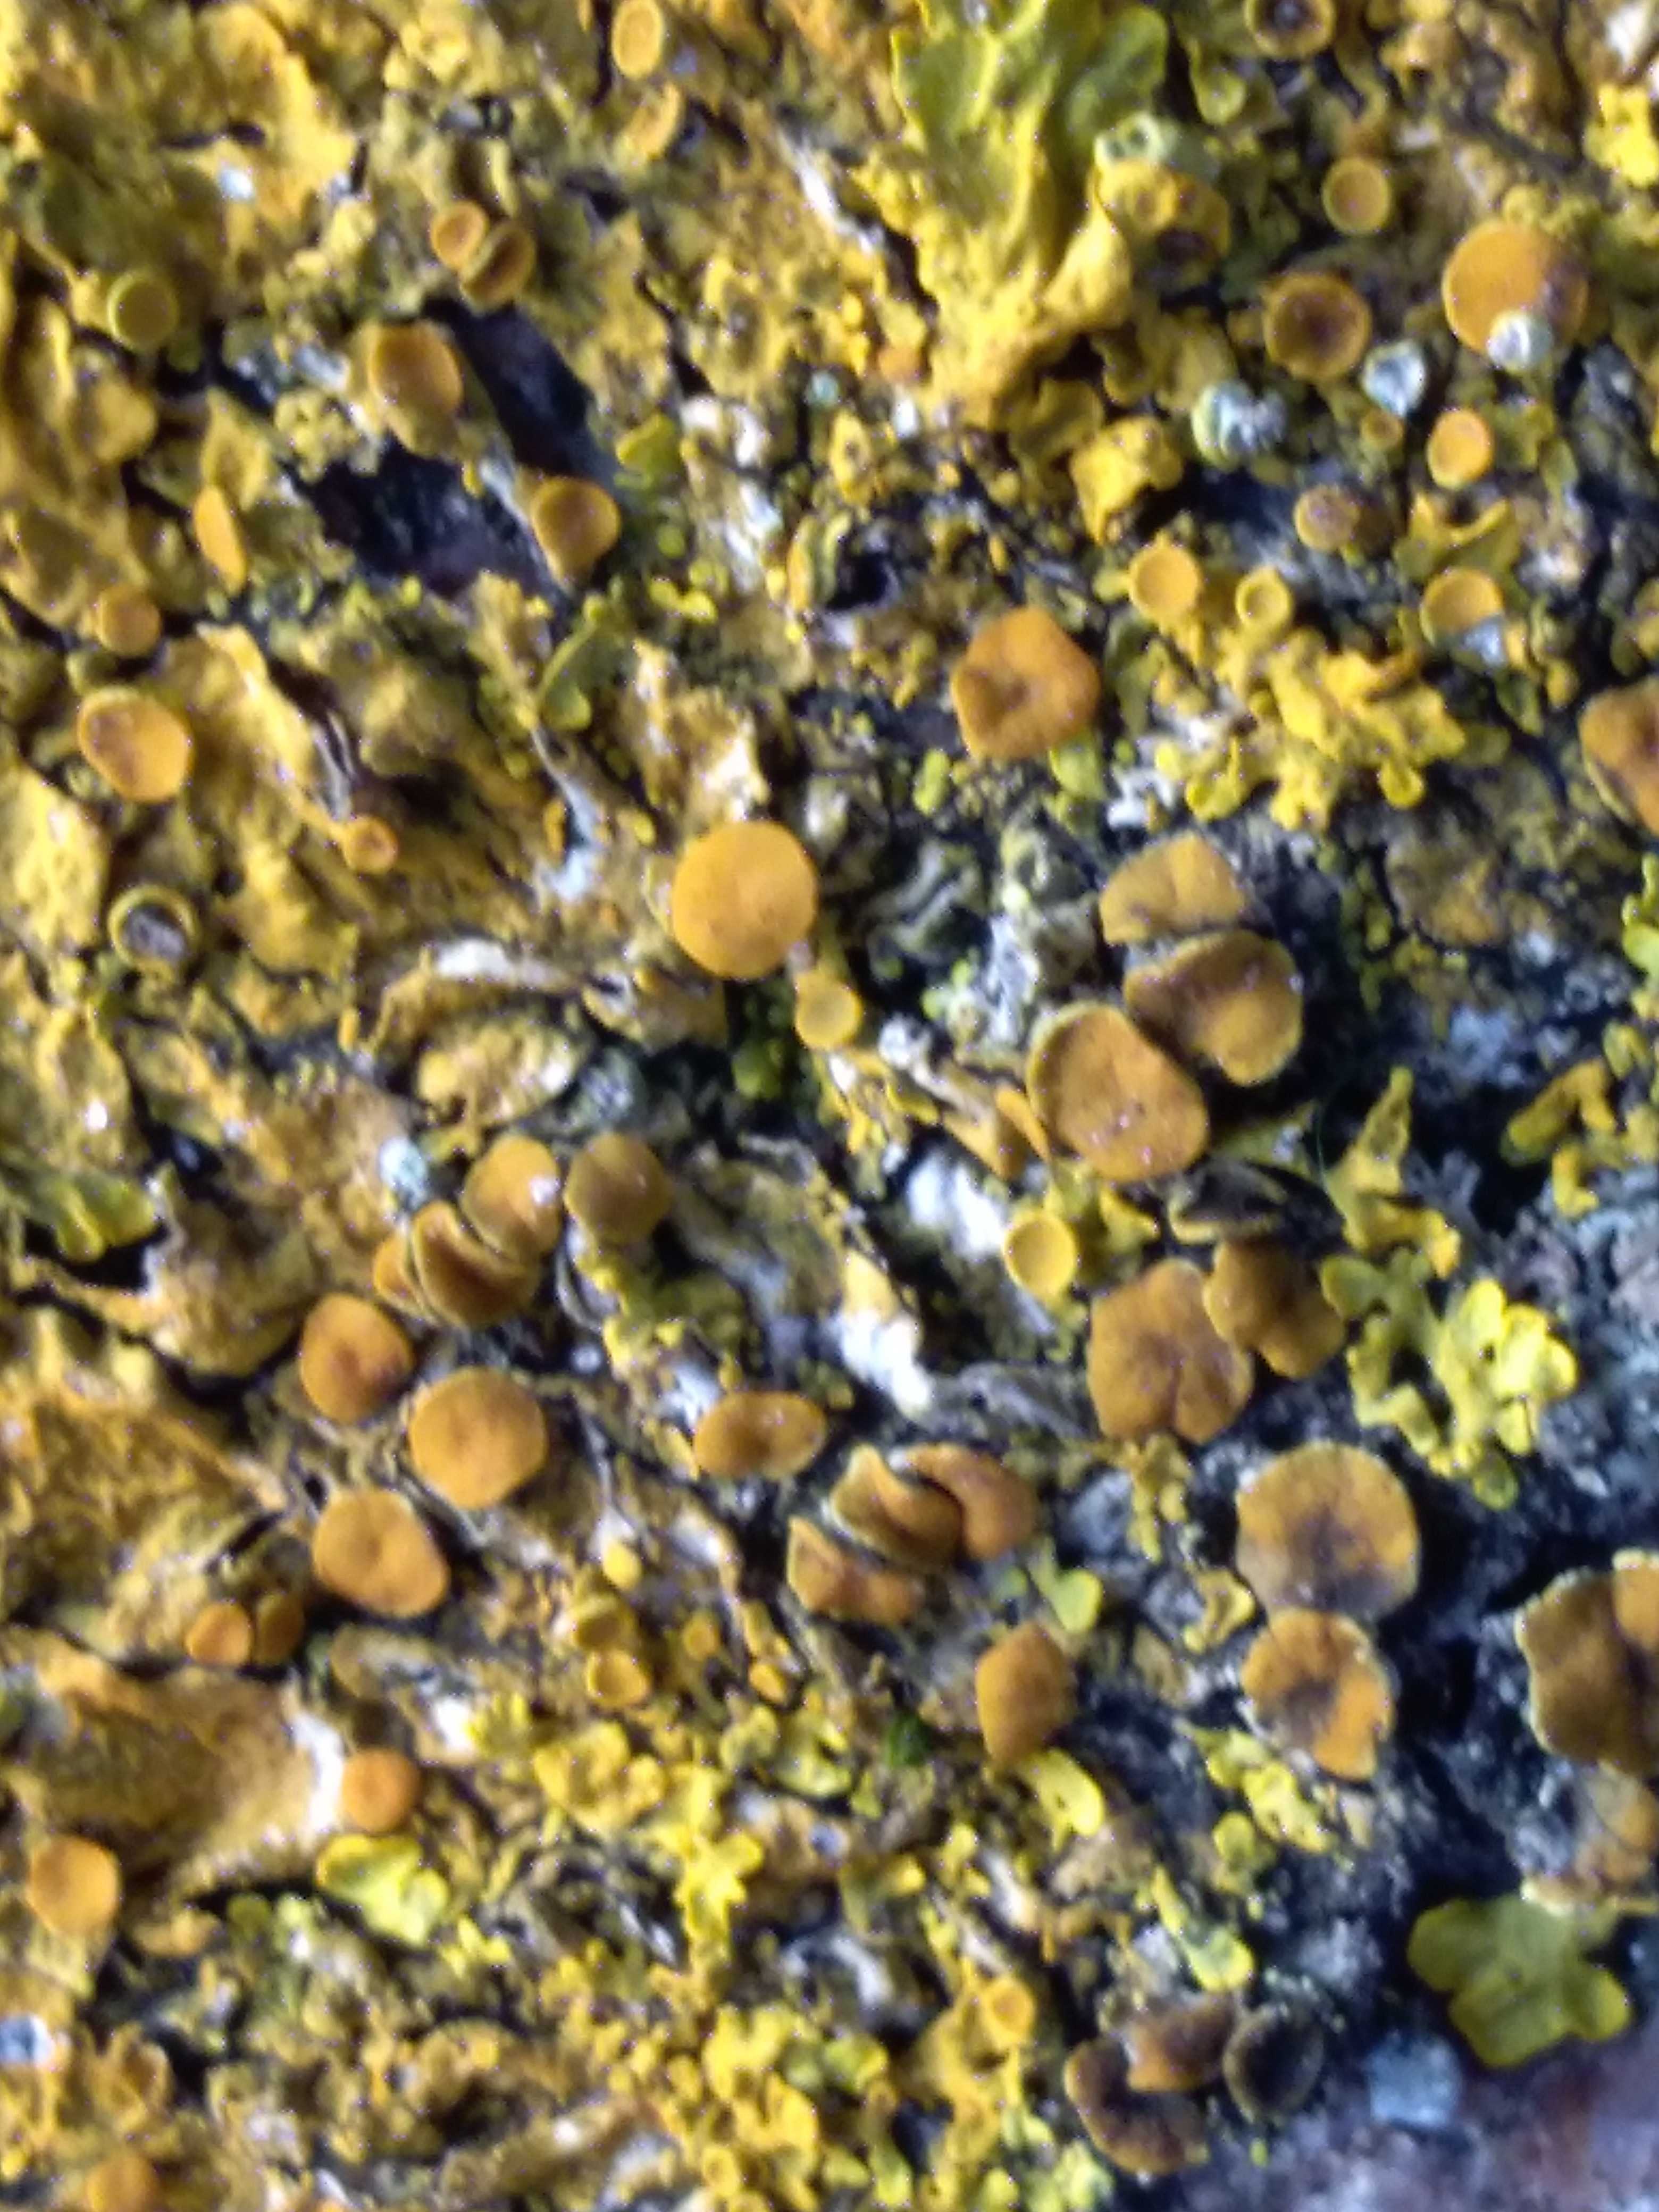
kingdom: Fungi
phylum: Ascomycota
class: Lecanoromycetes
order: Teloschistales
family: Teloschistaceae
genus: Xanthoria
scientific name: Xanthoria parietina
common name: almindelig væggelav
